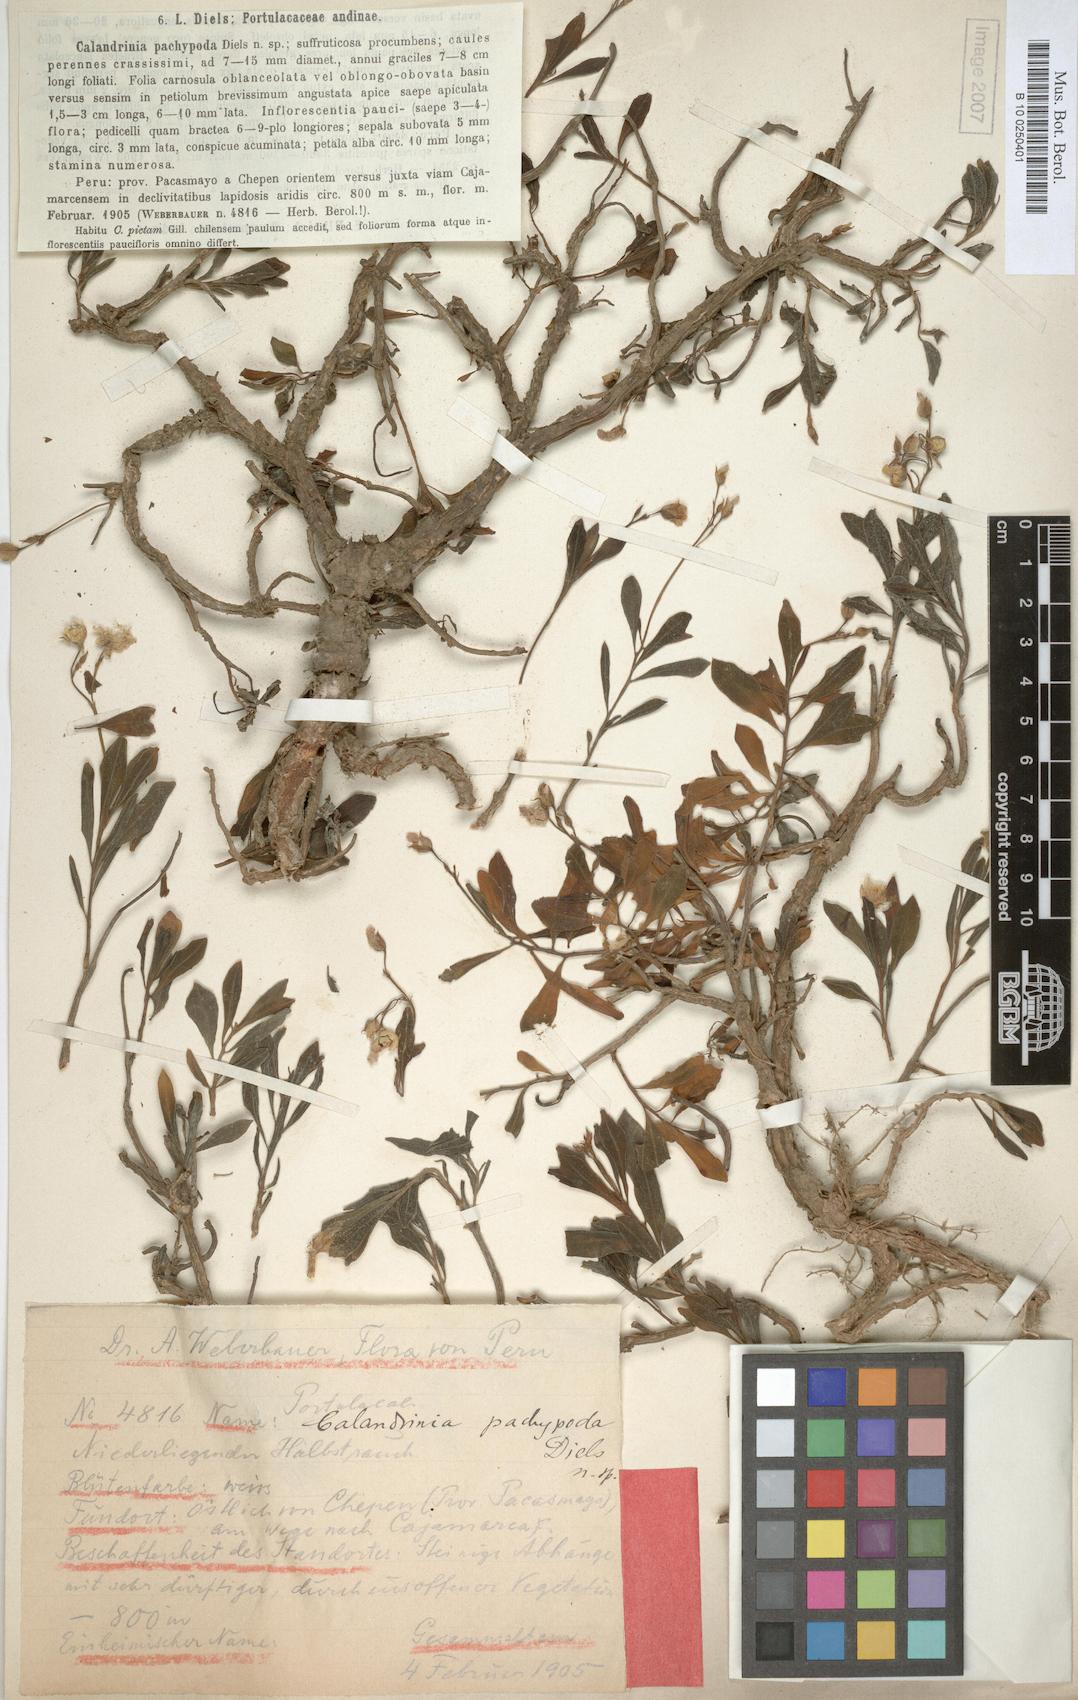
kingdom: Plantae
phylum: Tracheophyta
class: Magnoliopsida
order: Caryophyllales
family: Talinaceae
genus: Talinum
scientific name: Talinum fruticosum
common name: Verdolaga-francesa
